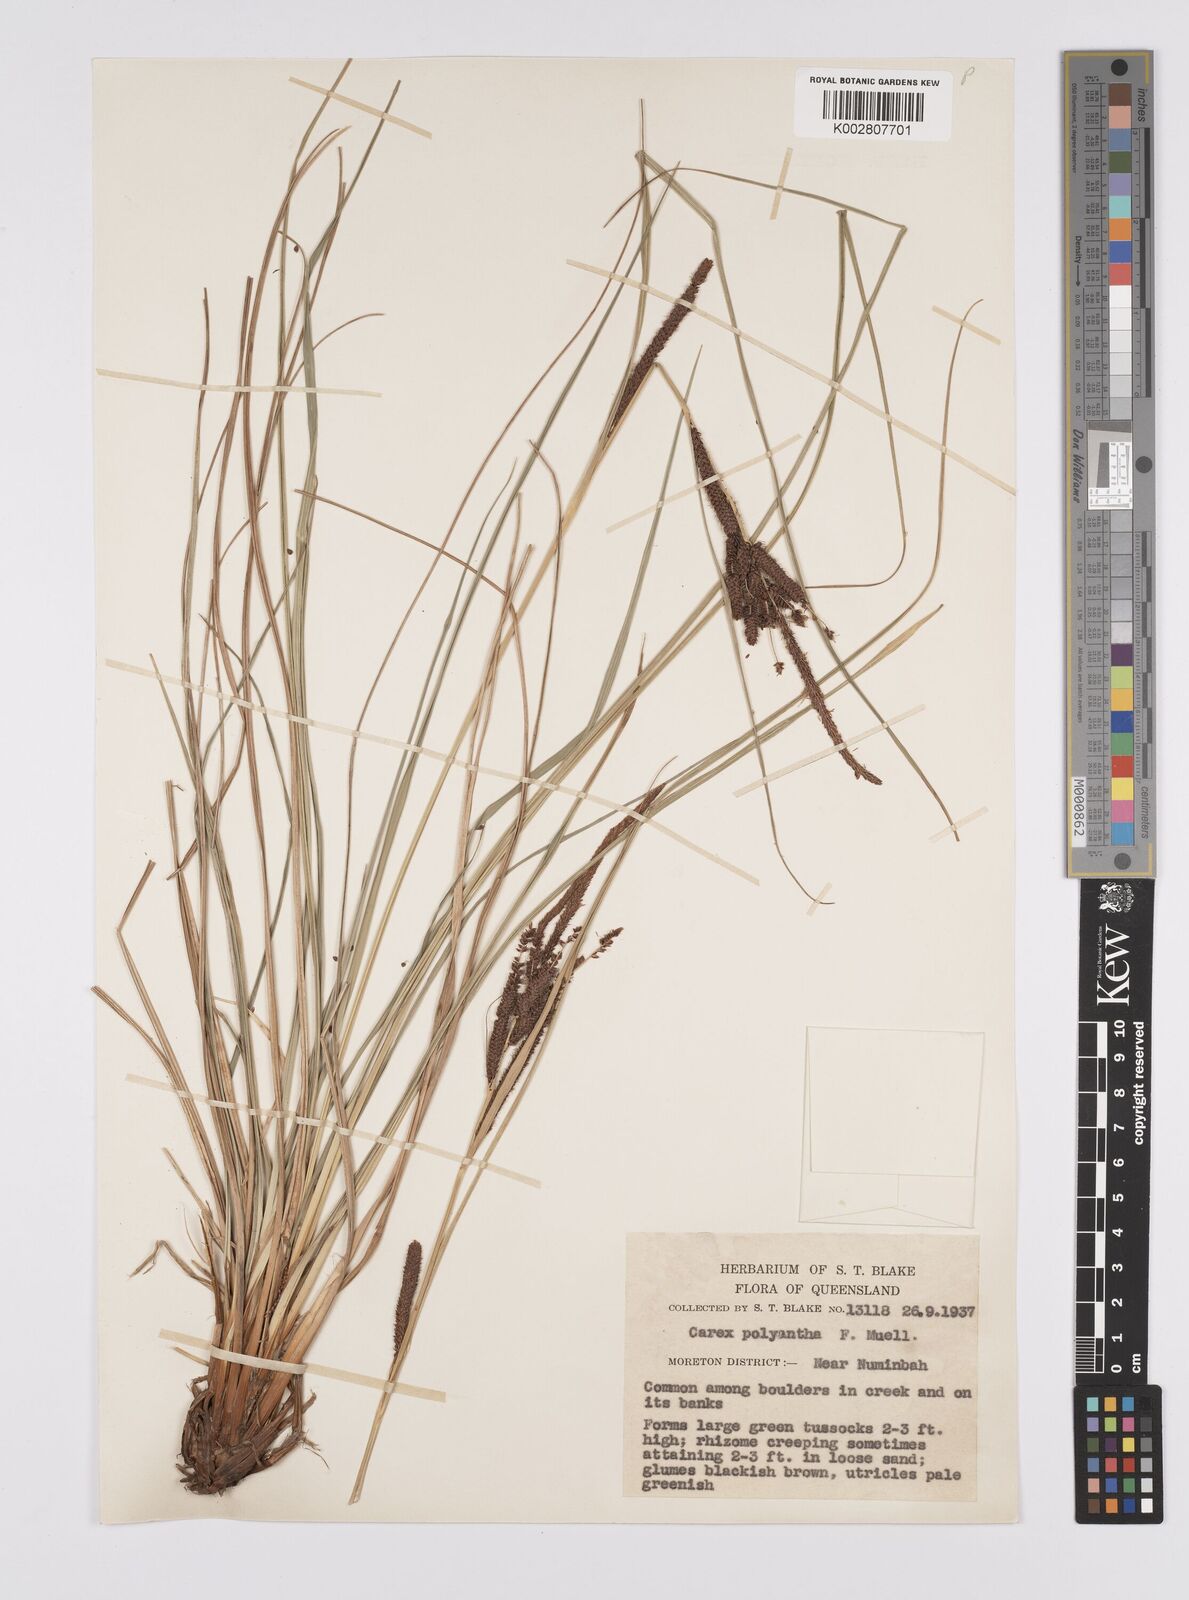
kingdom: Plantae
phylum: Tracheophyta
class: Liliopsida
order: Poales
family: Cyperaceae
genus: Carex
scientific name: Carex polyantha
